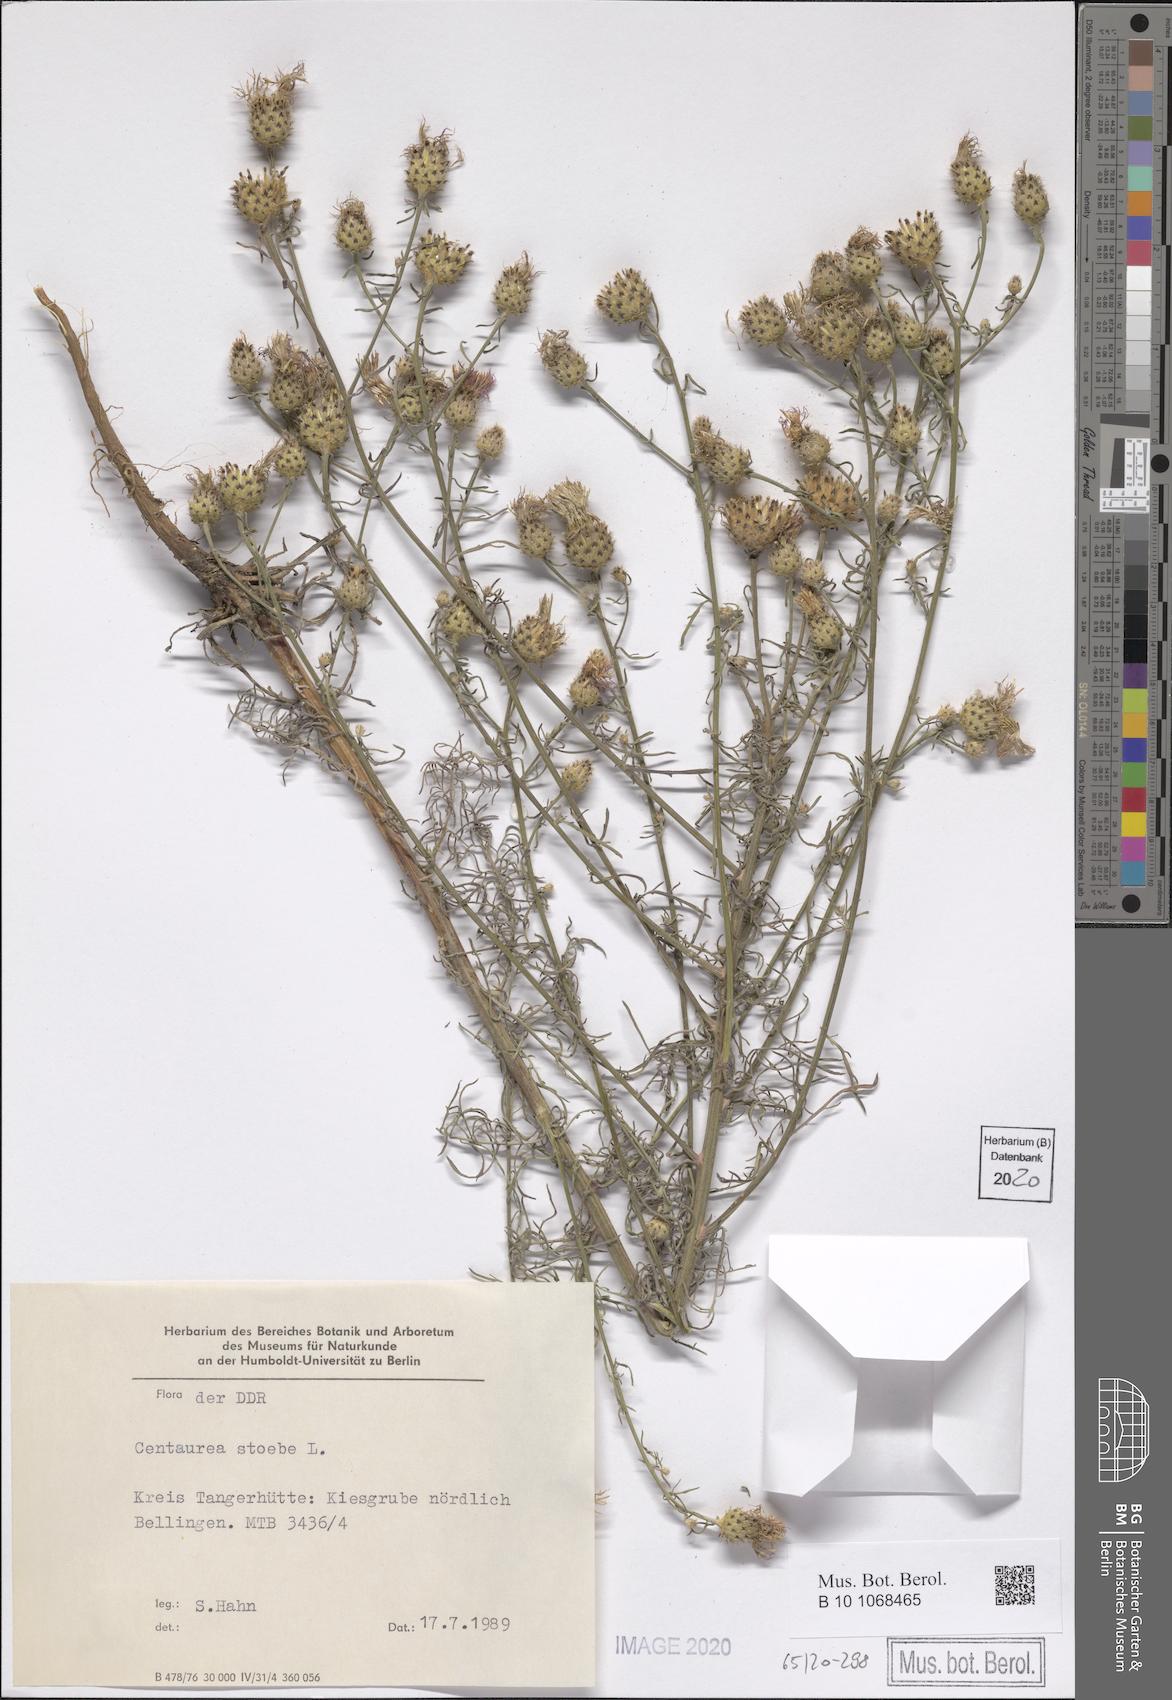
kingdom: Plantae
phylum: Tracheophyta
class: Magnoliopsida
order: Asterales
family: Asteraceae
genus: Centaurea
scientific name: Centaurea stoebe
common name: Spotted knapweed
